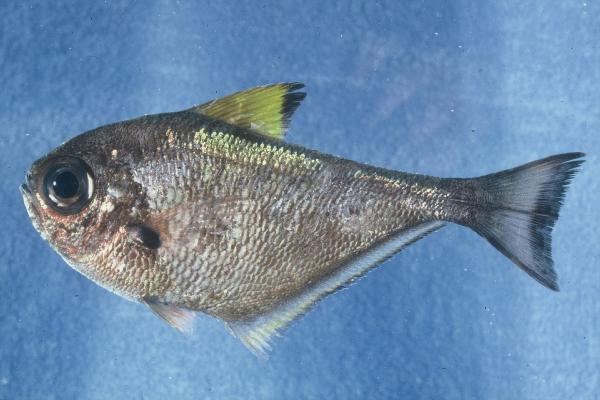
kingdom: Animalia
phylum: Chordata
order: Perciformes
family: Pempheridae
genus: Pempheris
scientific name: Pempheris bexillon
